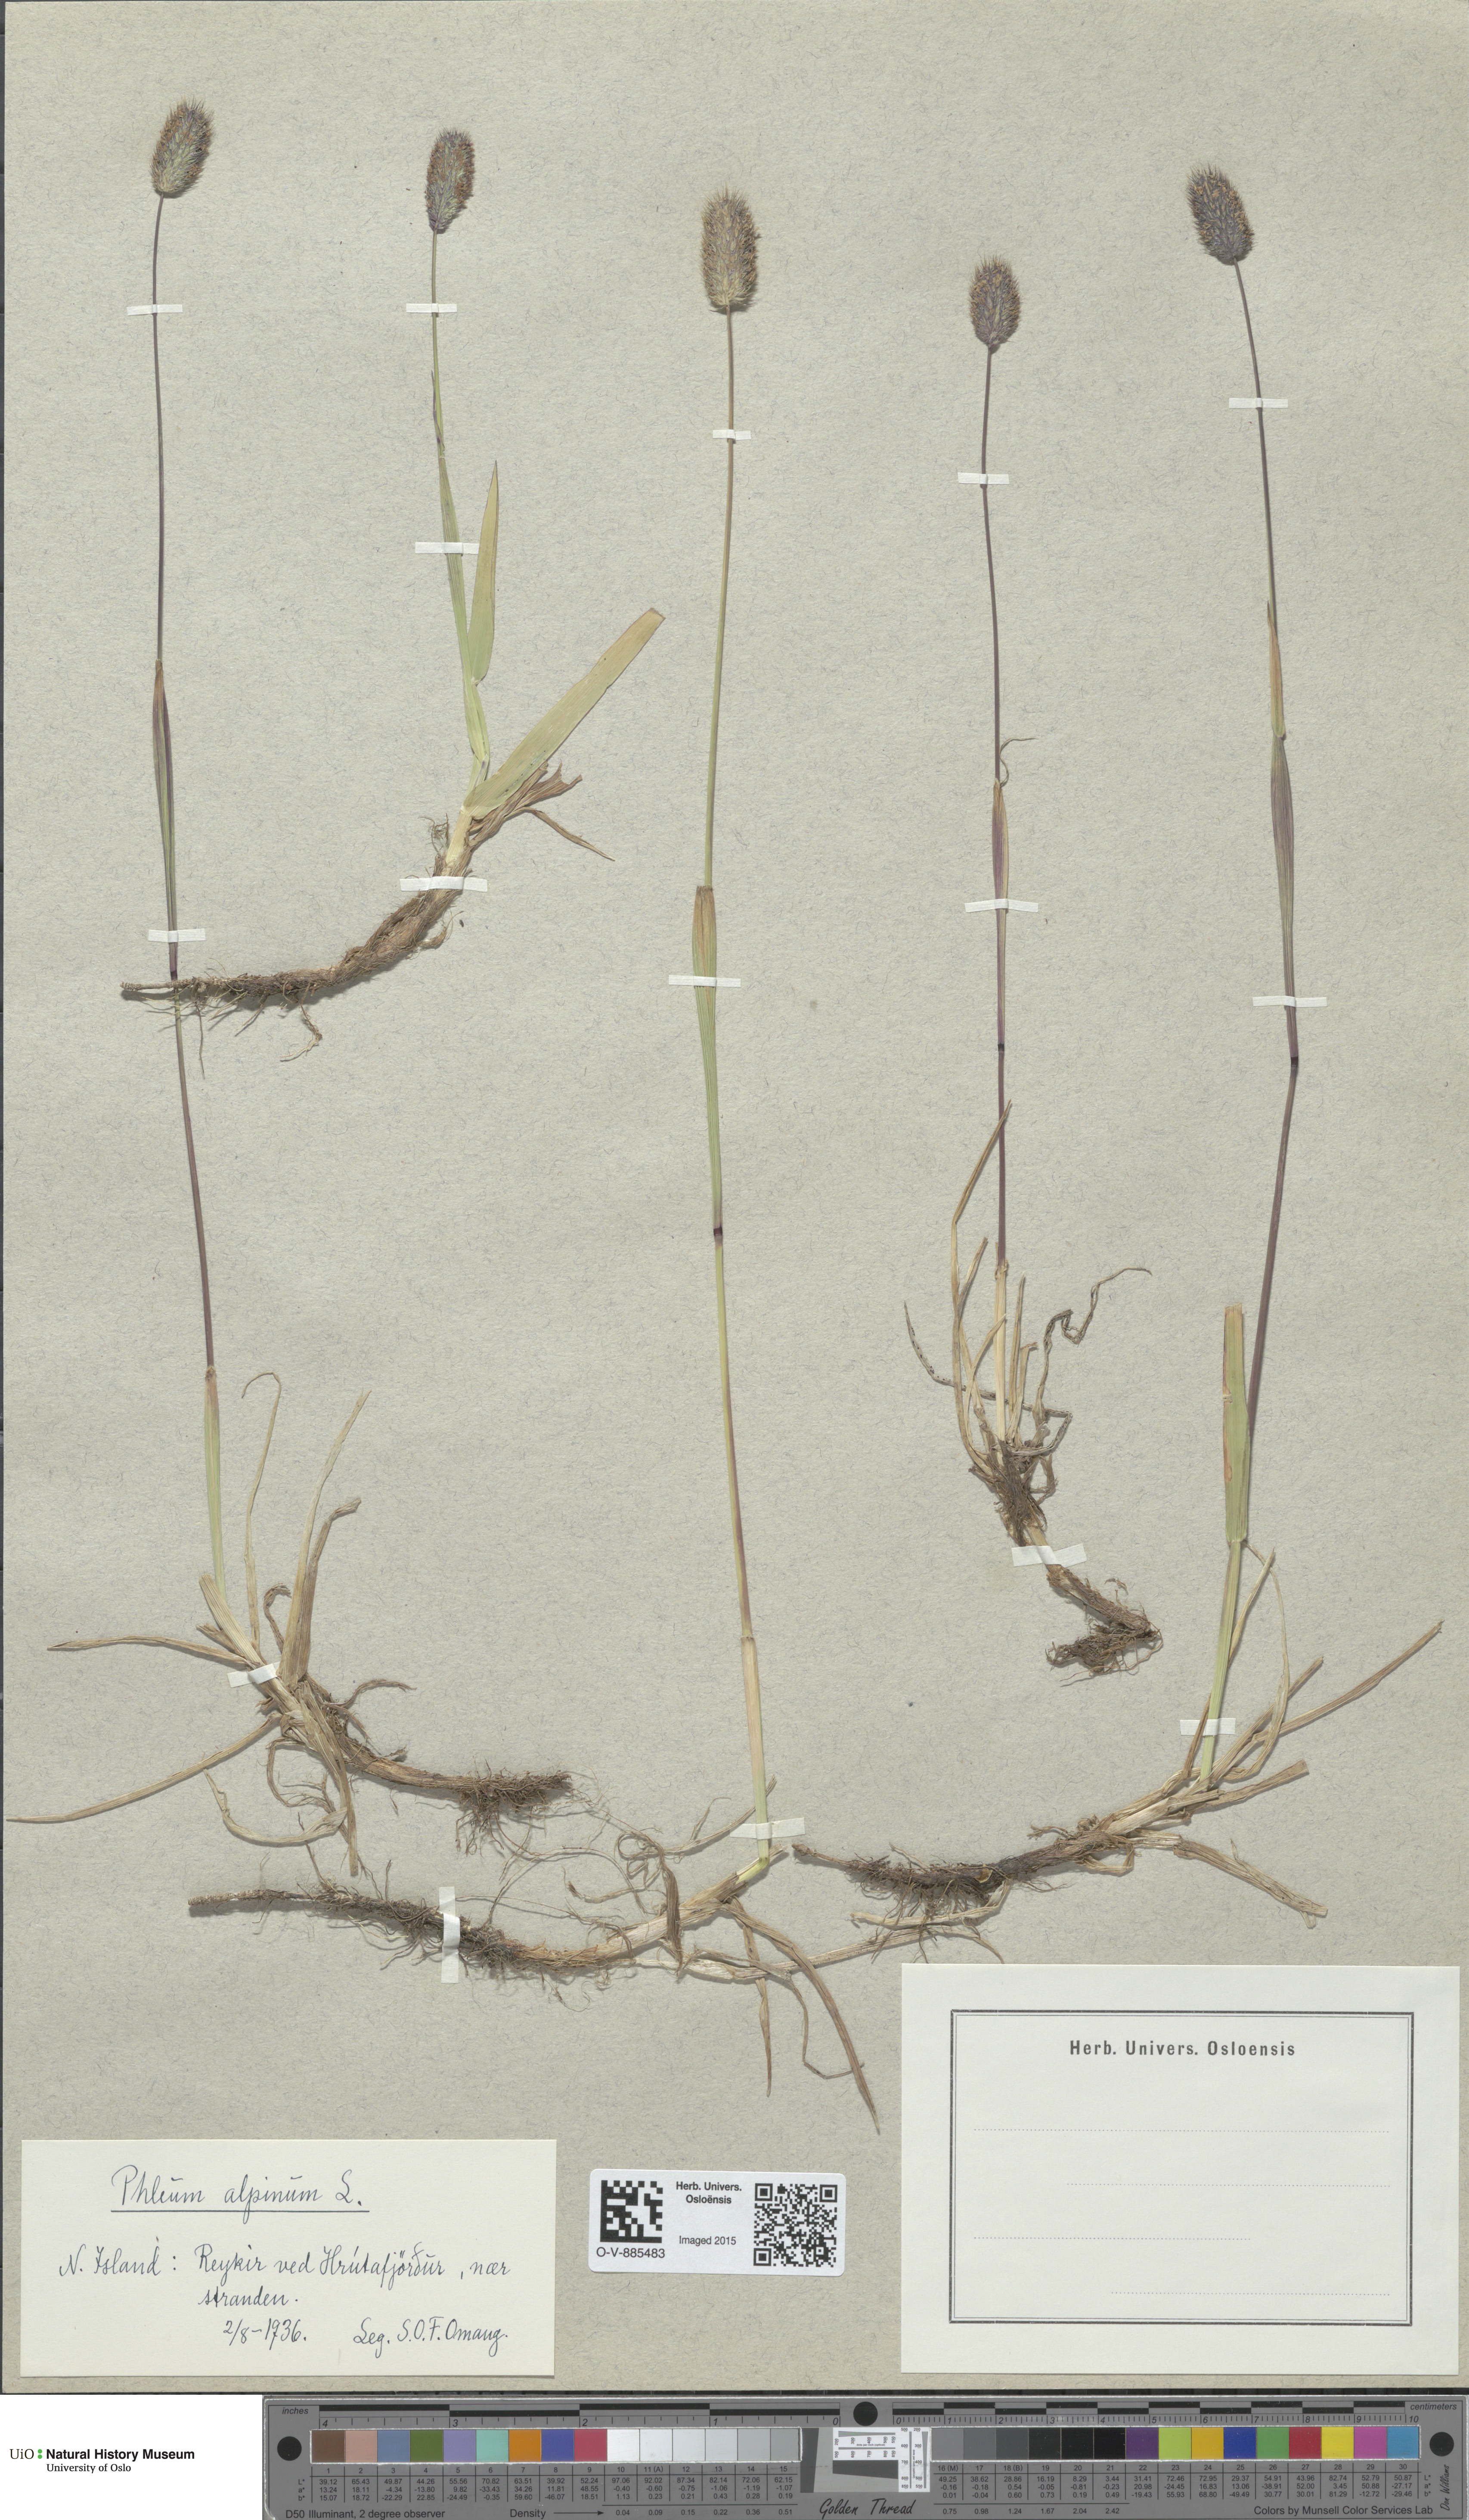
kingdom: Plantae
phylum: Tracheophyta
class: Liliopsida
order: Poales
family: Poaceae
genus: Phleum
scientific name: Phleum alpinum
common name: Alpine cat's-tail
